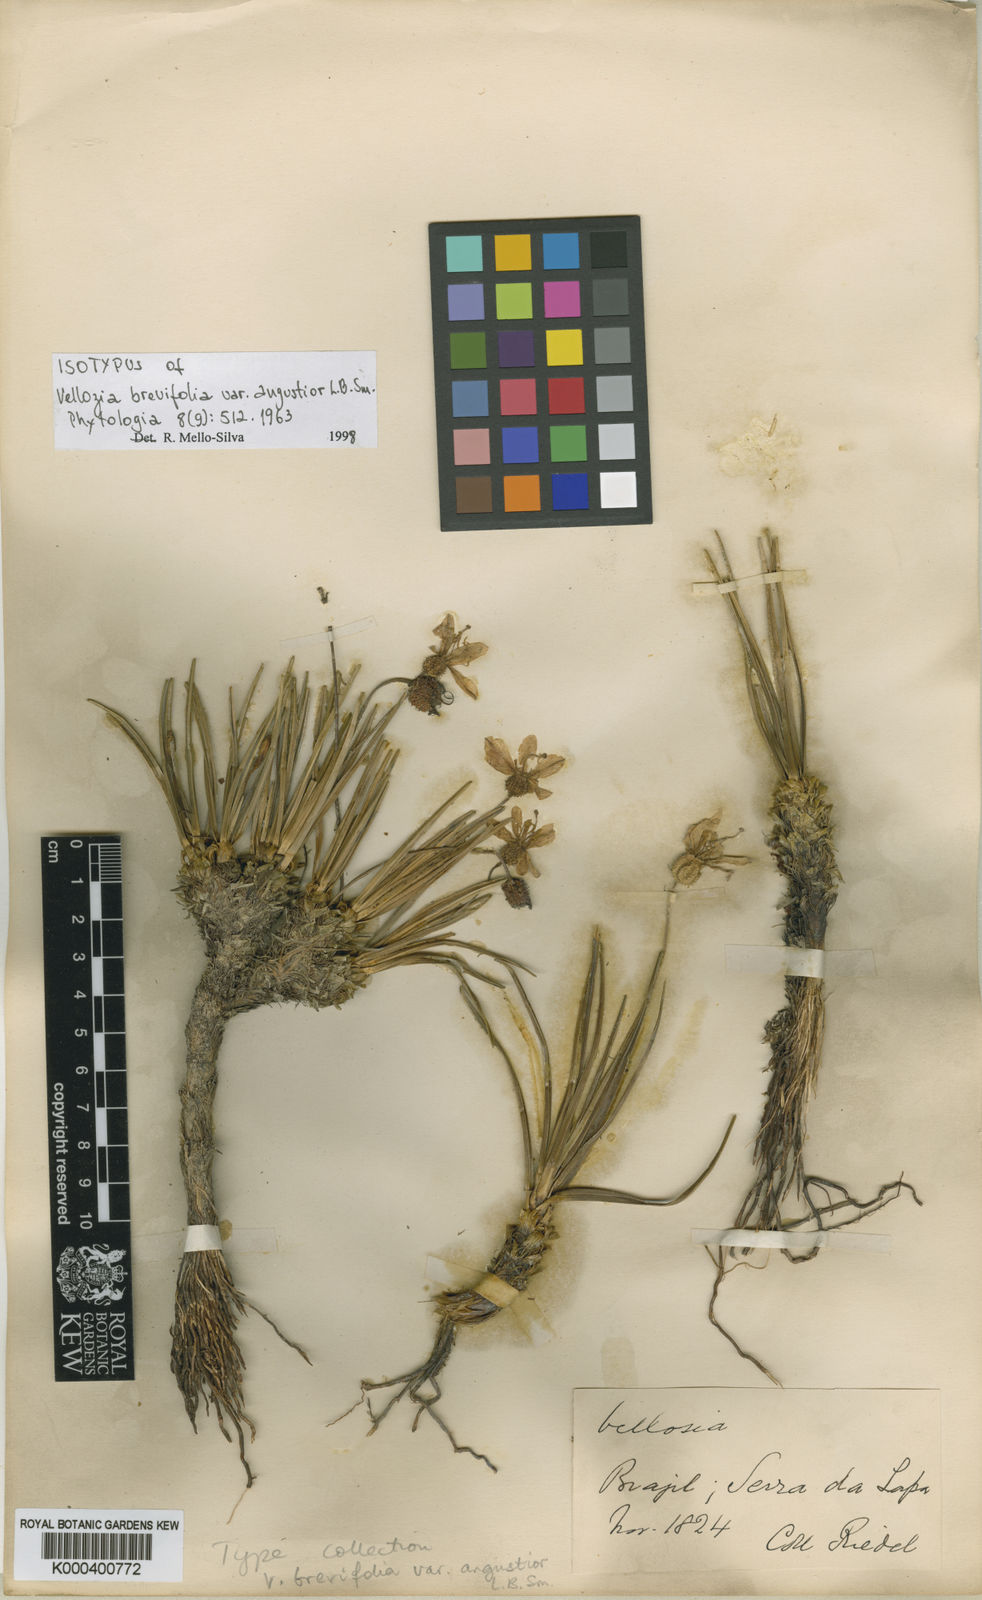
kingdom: Plantae
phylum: Tracheophyta
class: Liliopsida
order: Pandanales
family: Velloziaceae
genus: Vellozia
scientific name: Vellozia brevifolia
